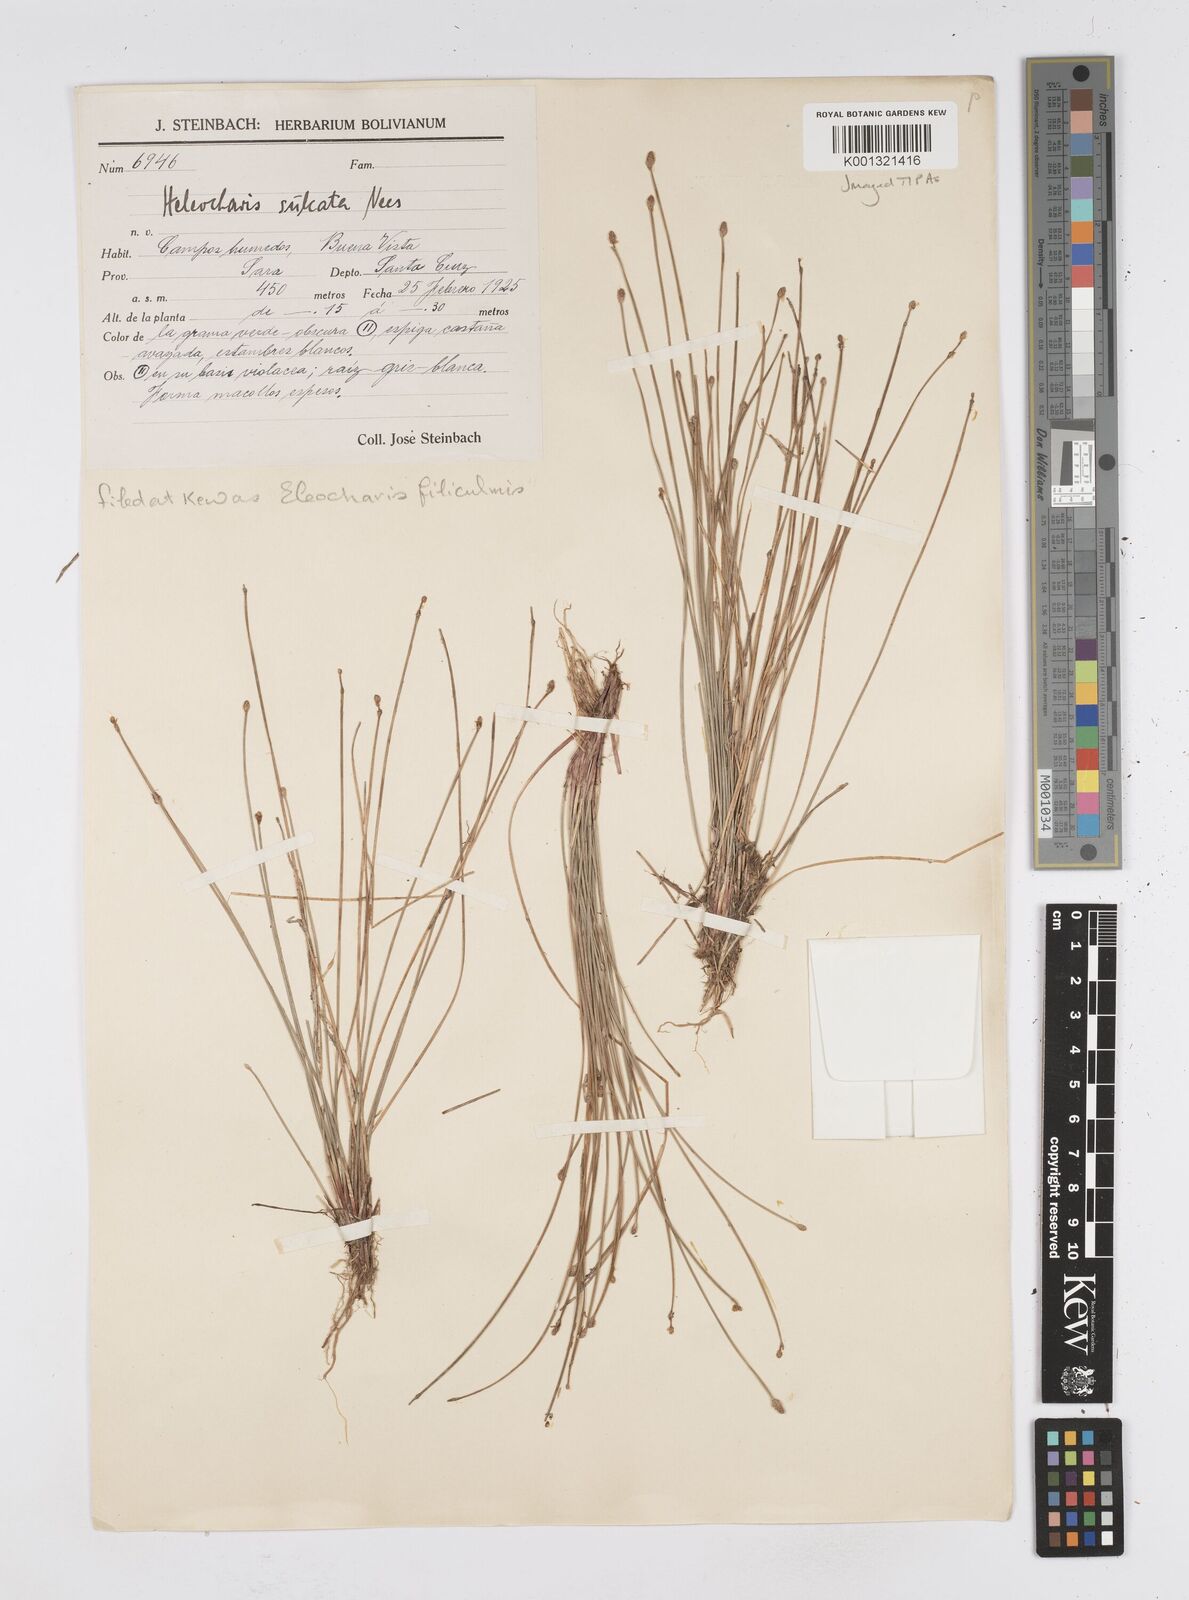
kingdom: Plantae
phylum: Tracheophyta
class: Liliopsida
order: Poales
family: Cyperaceae
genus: Eleocharis
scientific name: Eleocharis filiculmis
